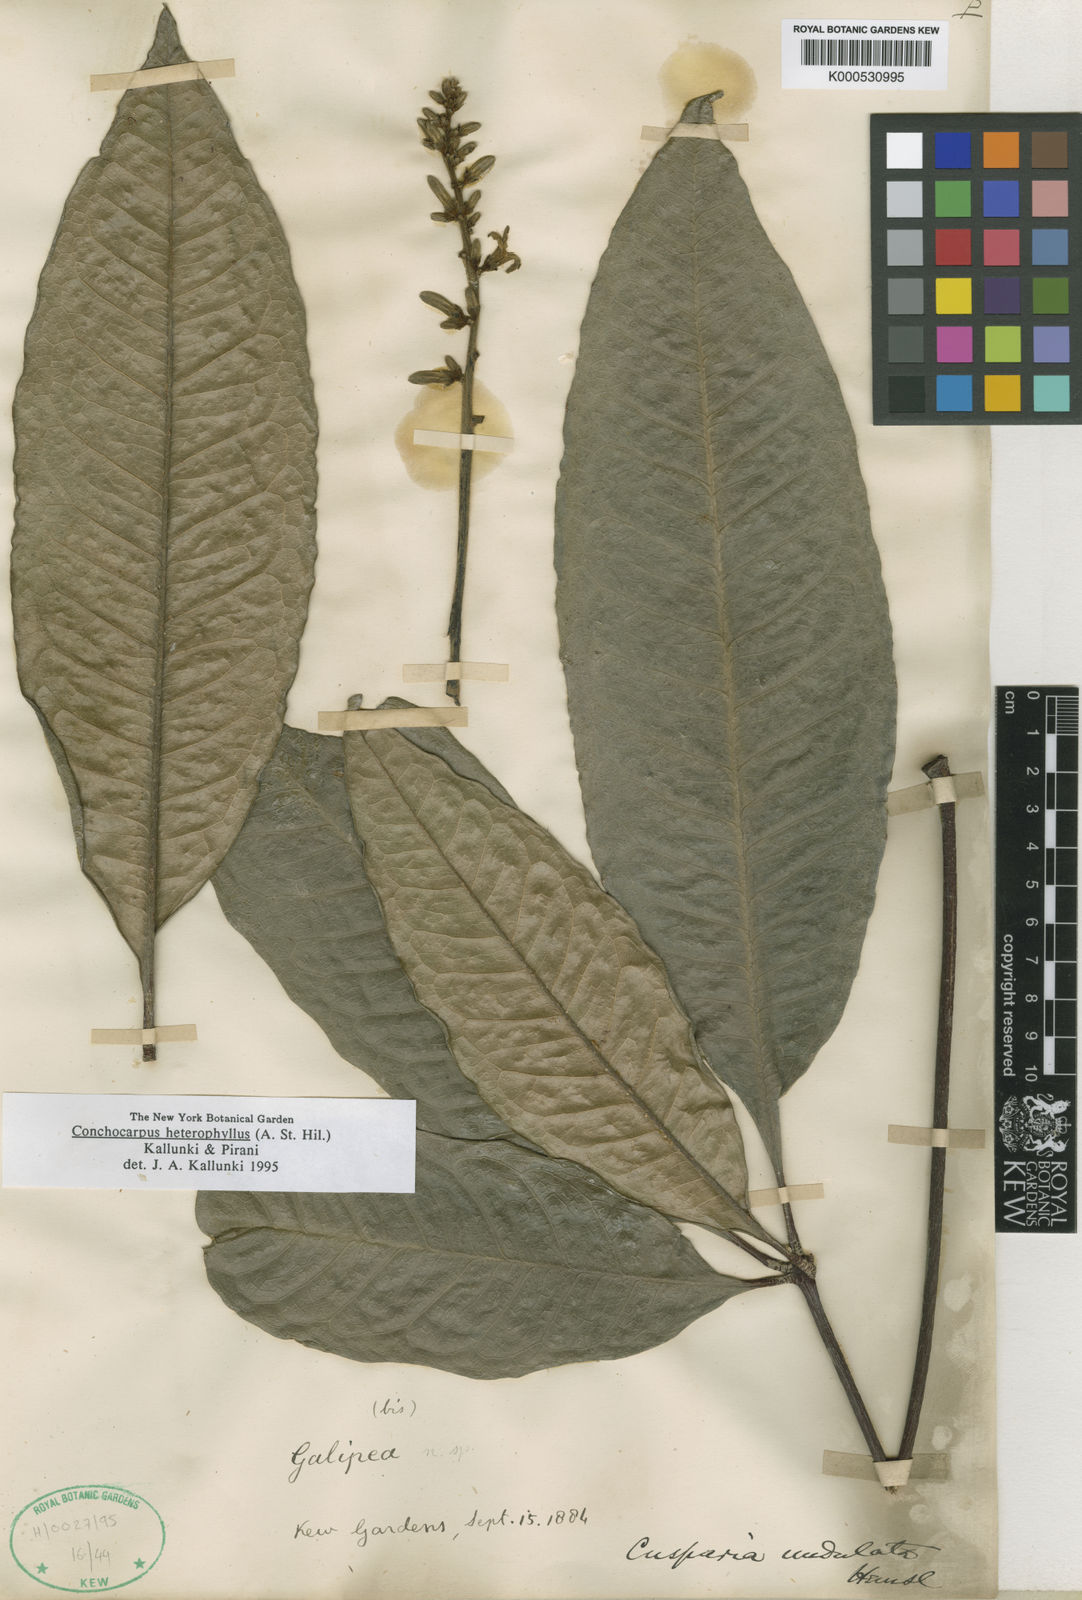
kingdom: Plantae
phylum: Tracheophyta
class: Magnoliopsida
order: Sapindales
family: Rutaceae
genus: Conchocarpus
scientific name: Conchocarpus heterophyllus
